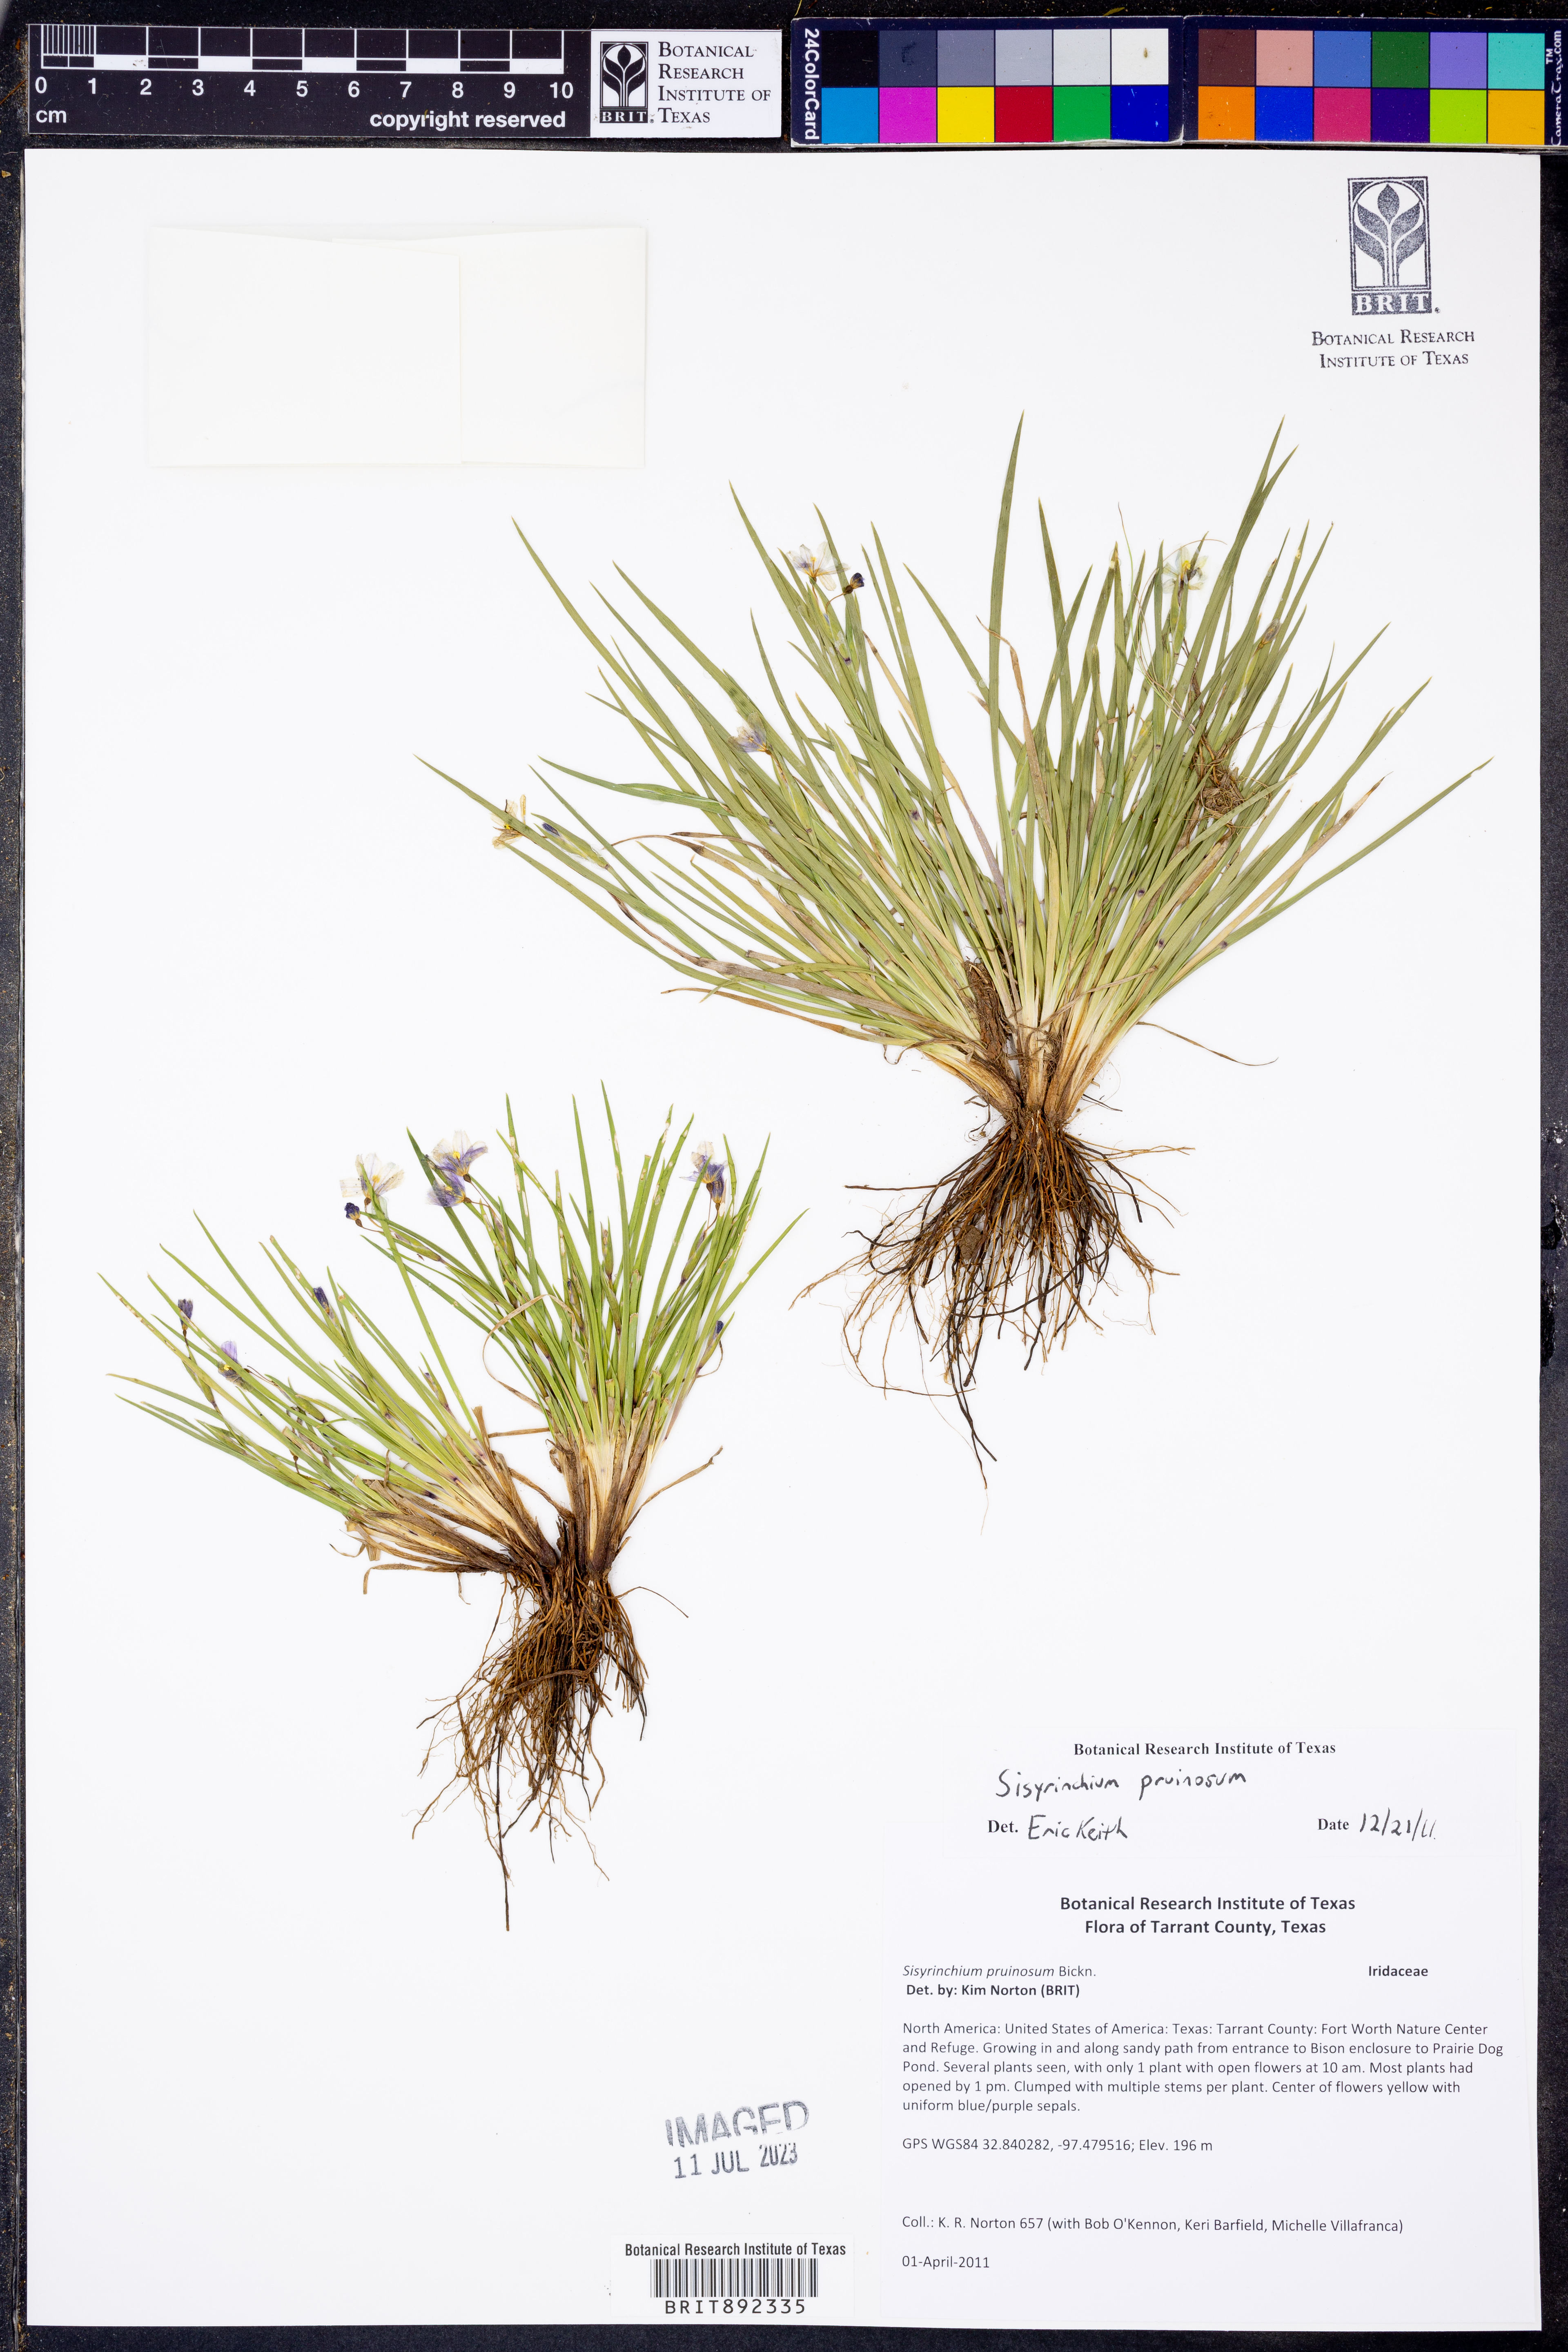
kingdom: Plantae
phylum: Tracheophyta
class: Liliopsida
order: Asparagales
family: Iridaceae
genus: Sisyrinchium
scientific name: Sisyrinchium pruinosum
